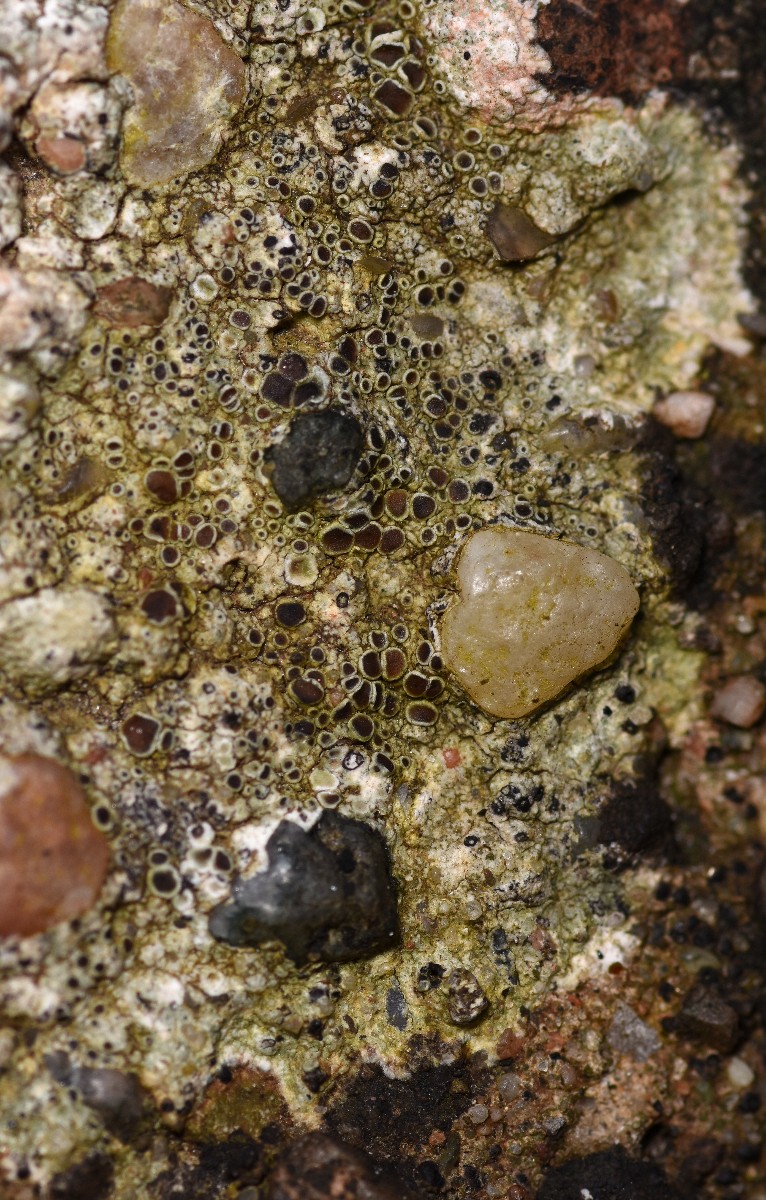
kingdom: Fungi
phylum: Ascomycota
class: Lecanoromycetes
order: Lecanorales
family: Lecanoraceae
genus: Lecanora
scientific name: Lecanora campestris
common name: mur-kantskivelav
